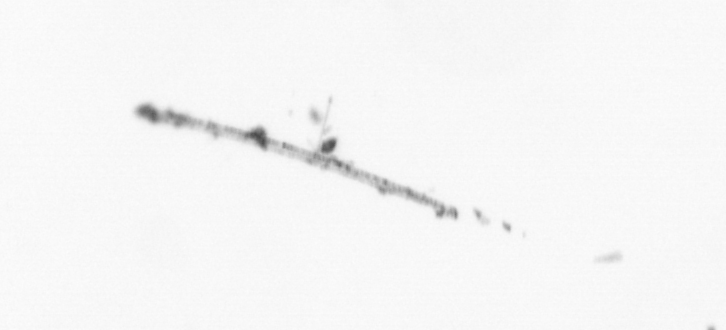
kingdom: Chromista
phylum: Ochrophyta
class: Bacillariophyceae
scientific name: Bacillariophyceae
